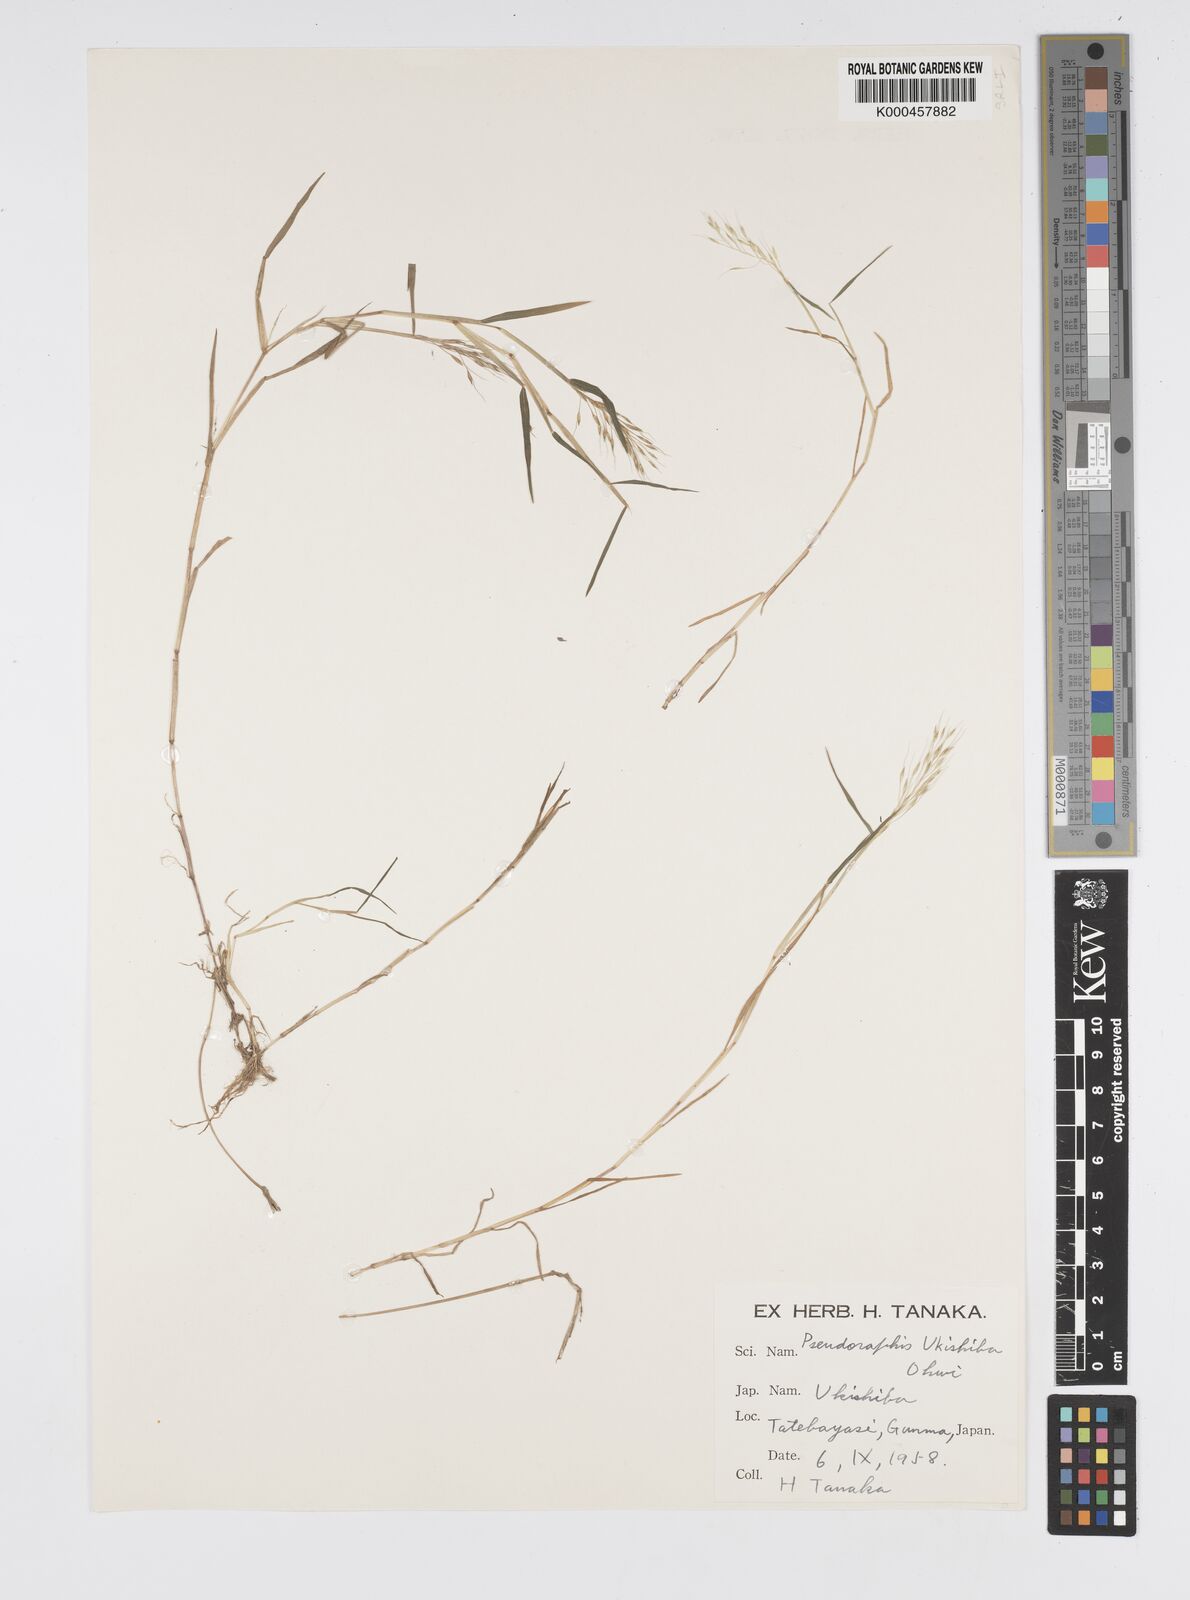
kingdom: Plantae
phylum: Tracheophyta
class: Liliopsida
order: Poales
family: Poaceae
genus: Pseudoraphis
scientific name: Pseudoraphis sordida
